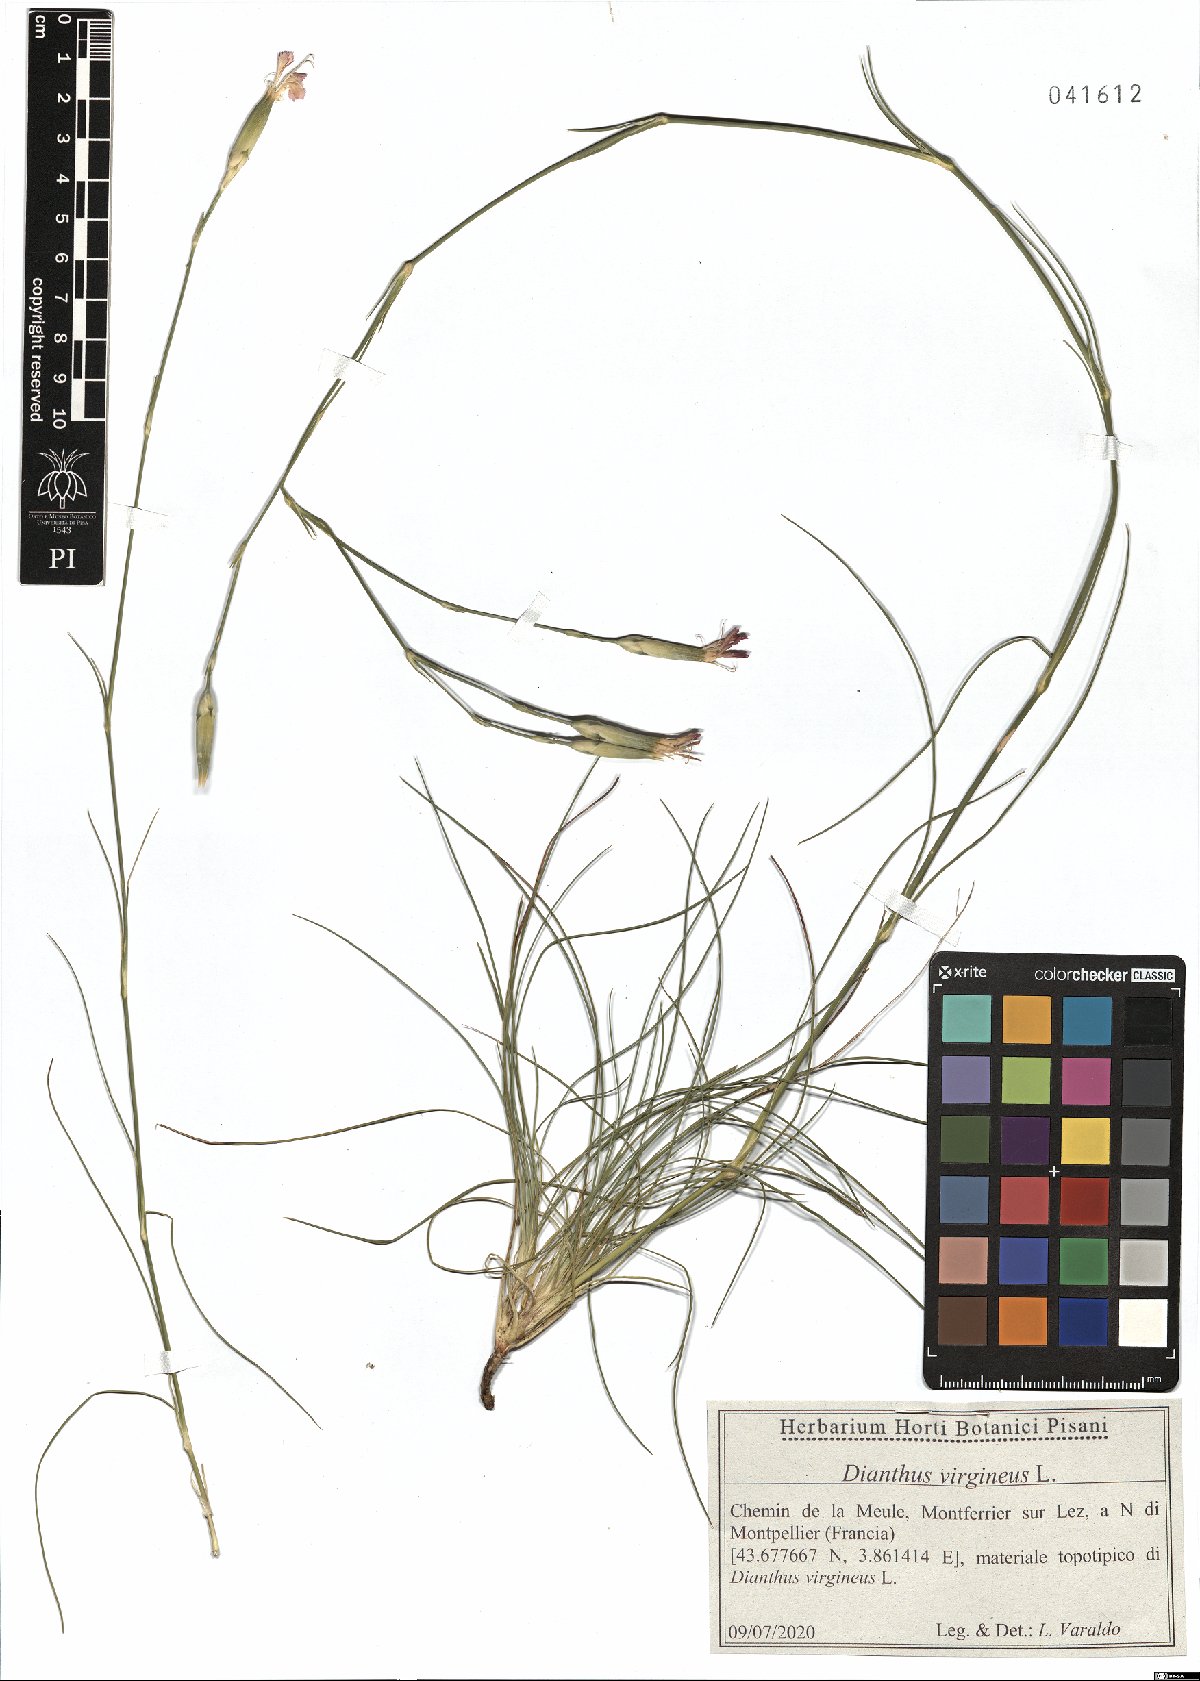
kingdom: Plantae
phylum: Tracheophyta
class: Magnoliopsida
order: Caryophyllales
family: Caryophyllaceae
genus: Dianthus
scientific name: Dianthus virgineus
